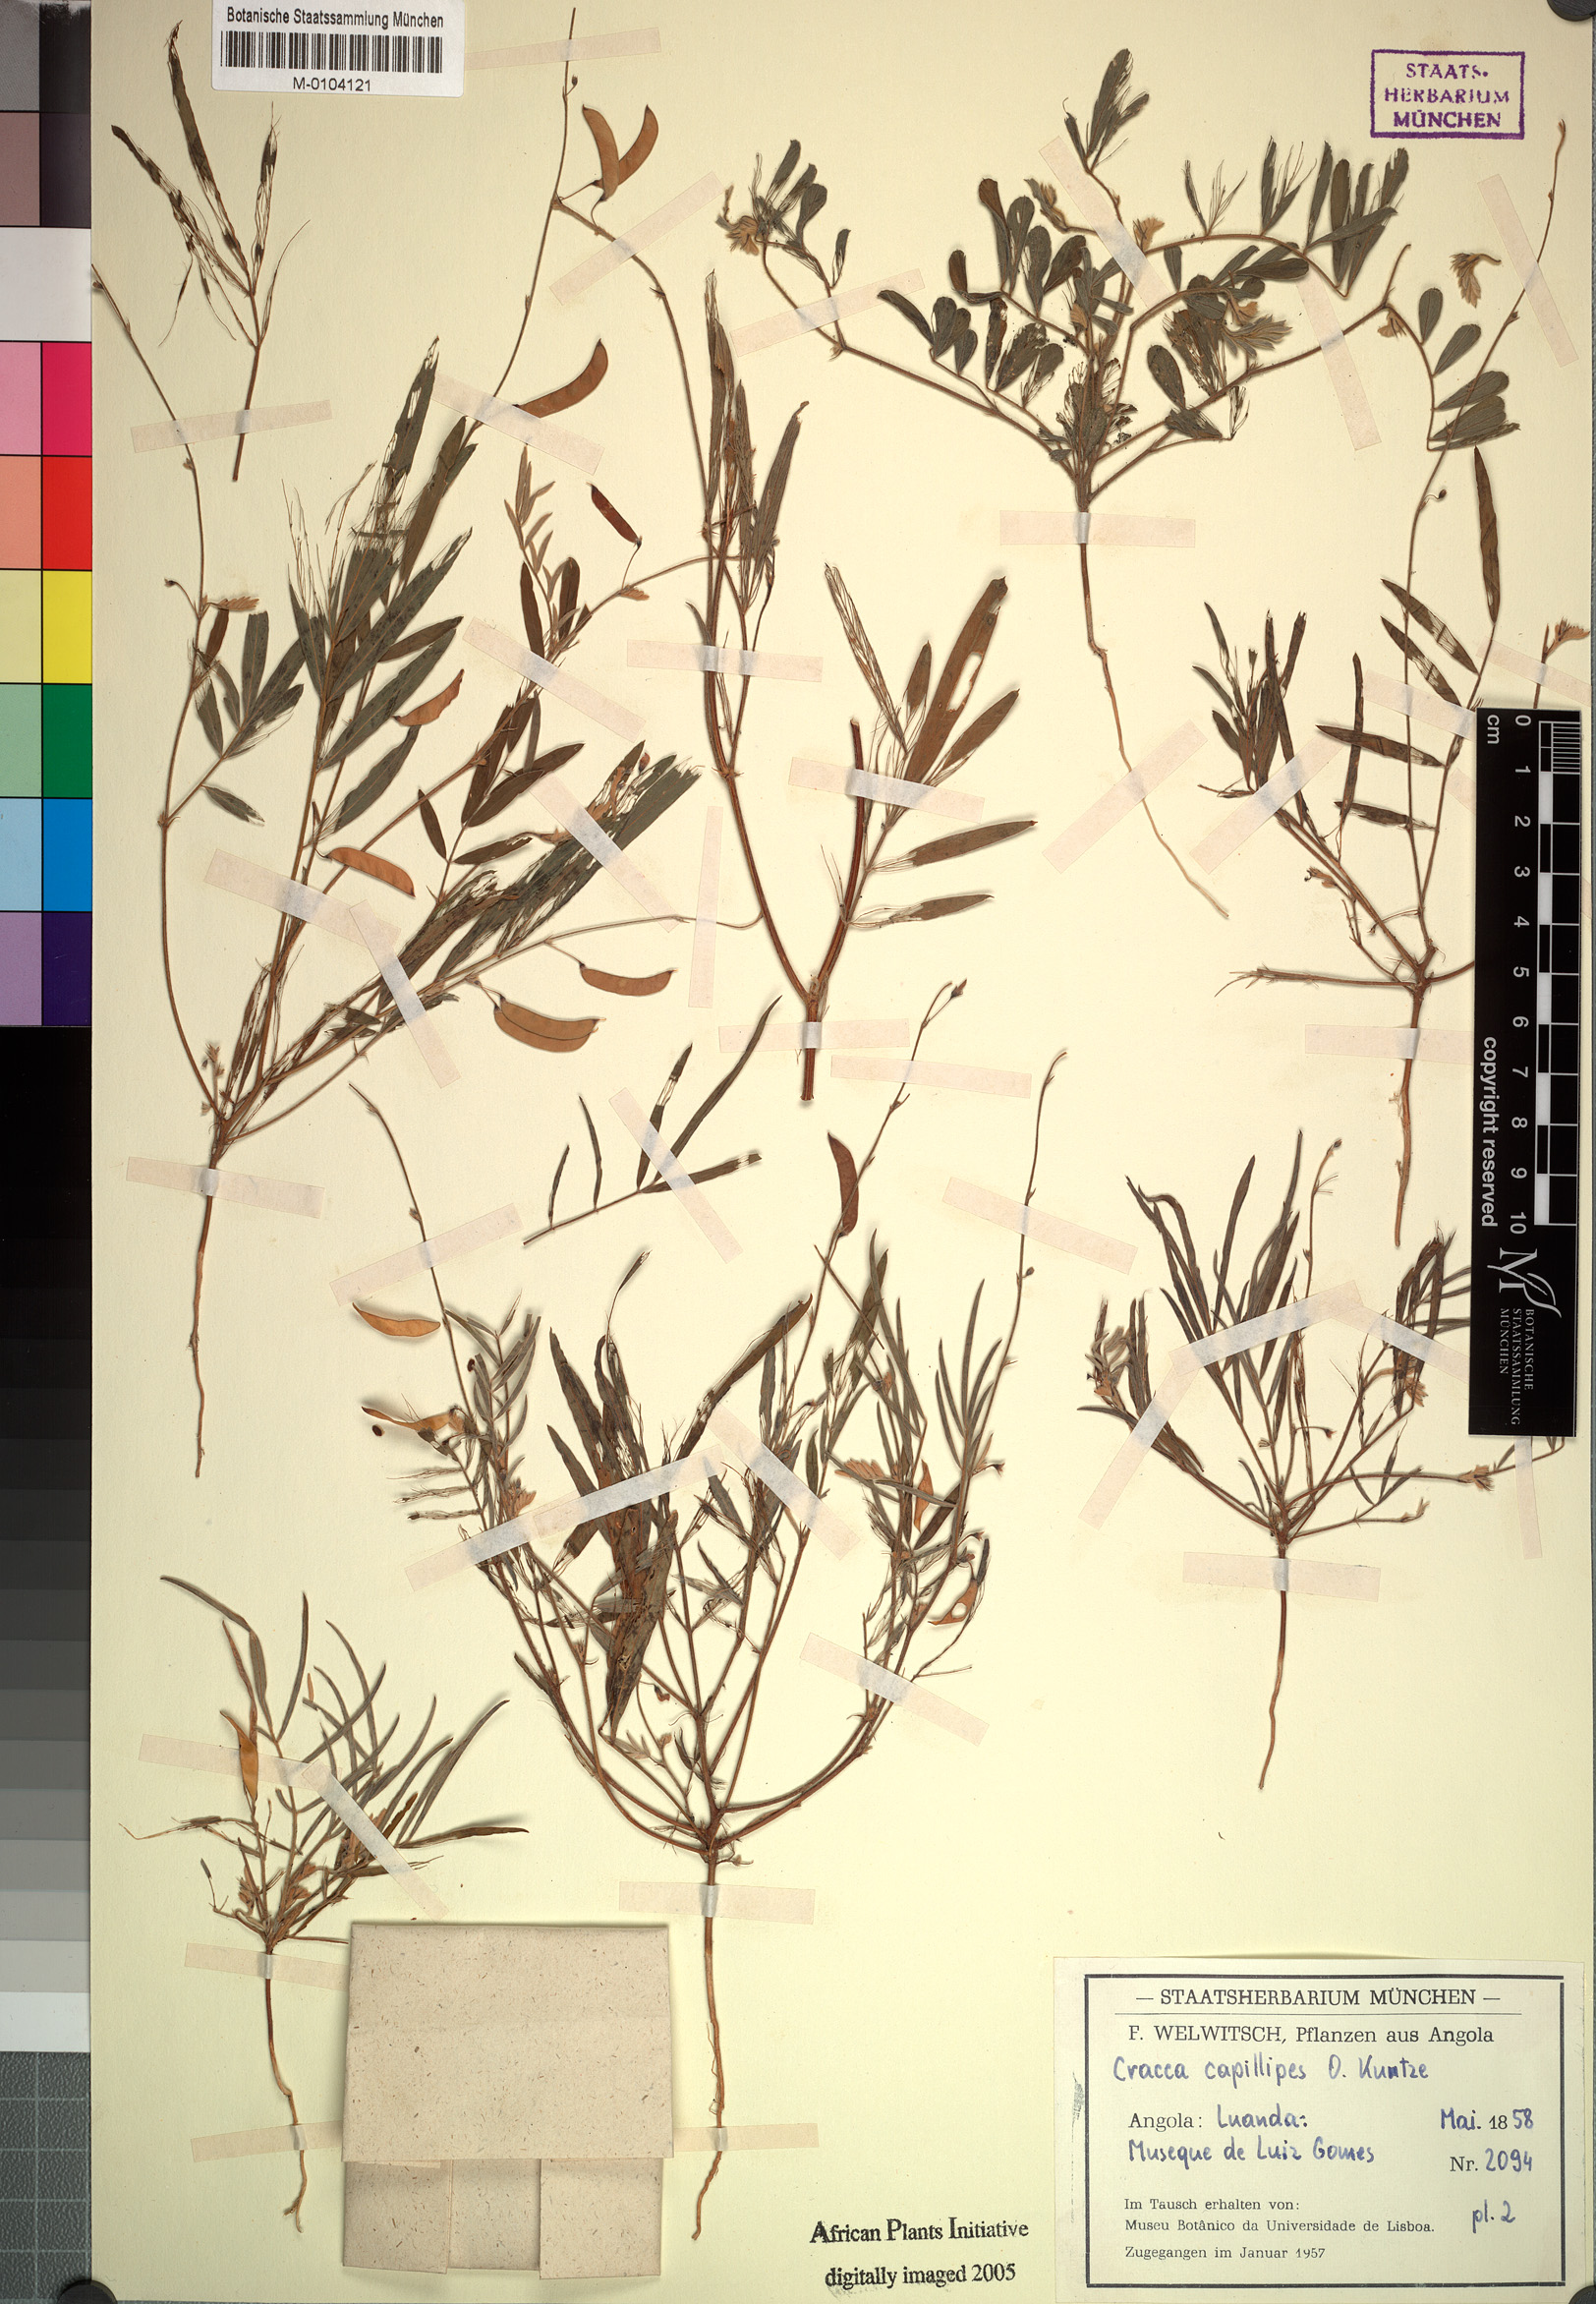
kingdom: Plantae
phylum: Tracheophyta
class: Magnoliopsida
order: Fabales
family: Fabaceae
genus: Tephrosia
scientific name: Tephrosia dregeana
